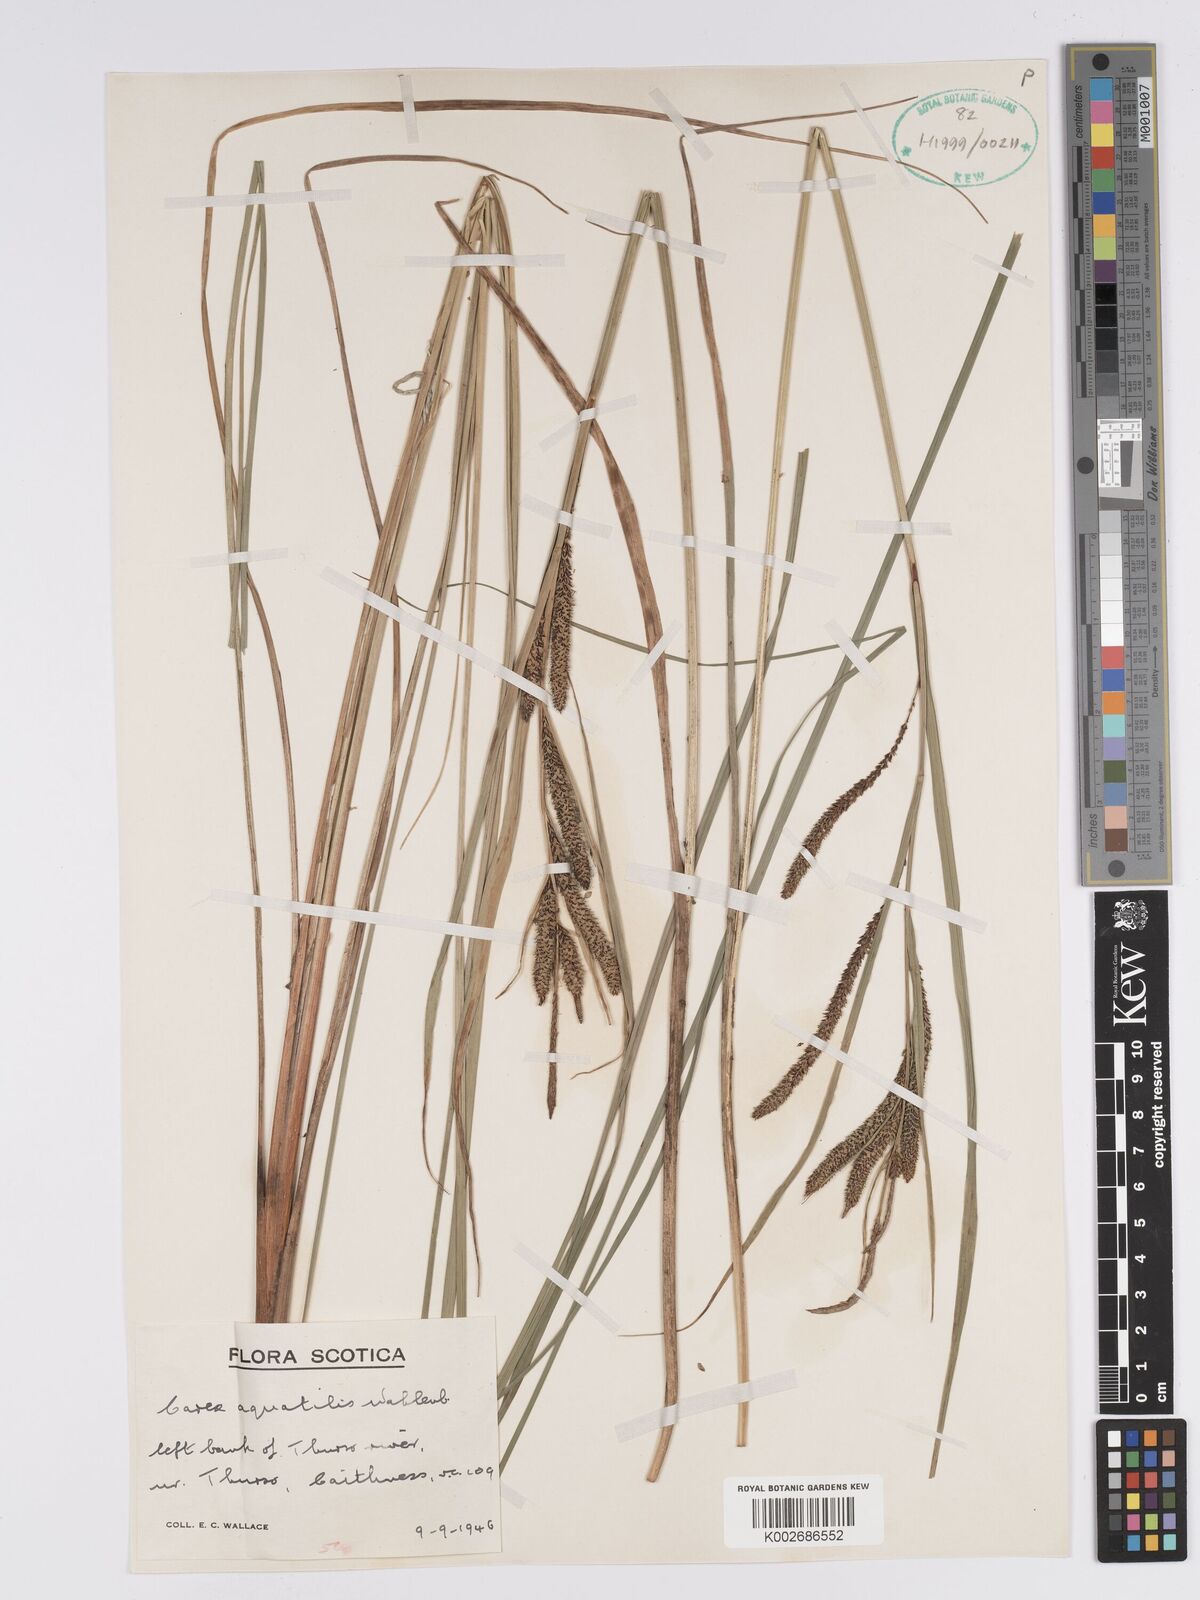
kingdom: Plantae
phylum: Tracheophyta
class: Liliopsida
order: Poales
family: Cyperaceae
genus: Carex
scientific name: Carex aquatilis
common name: Water sedge
